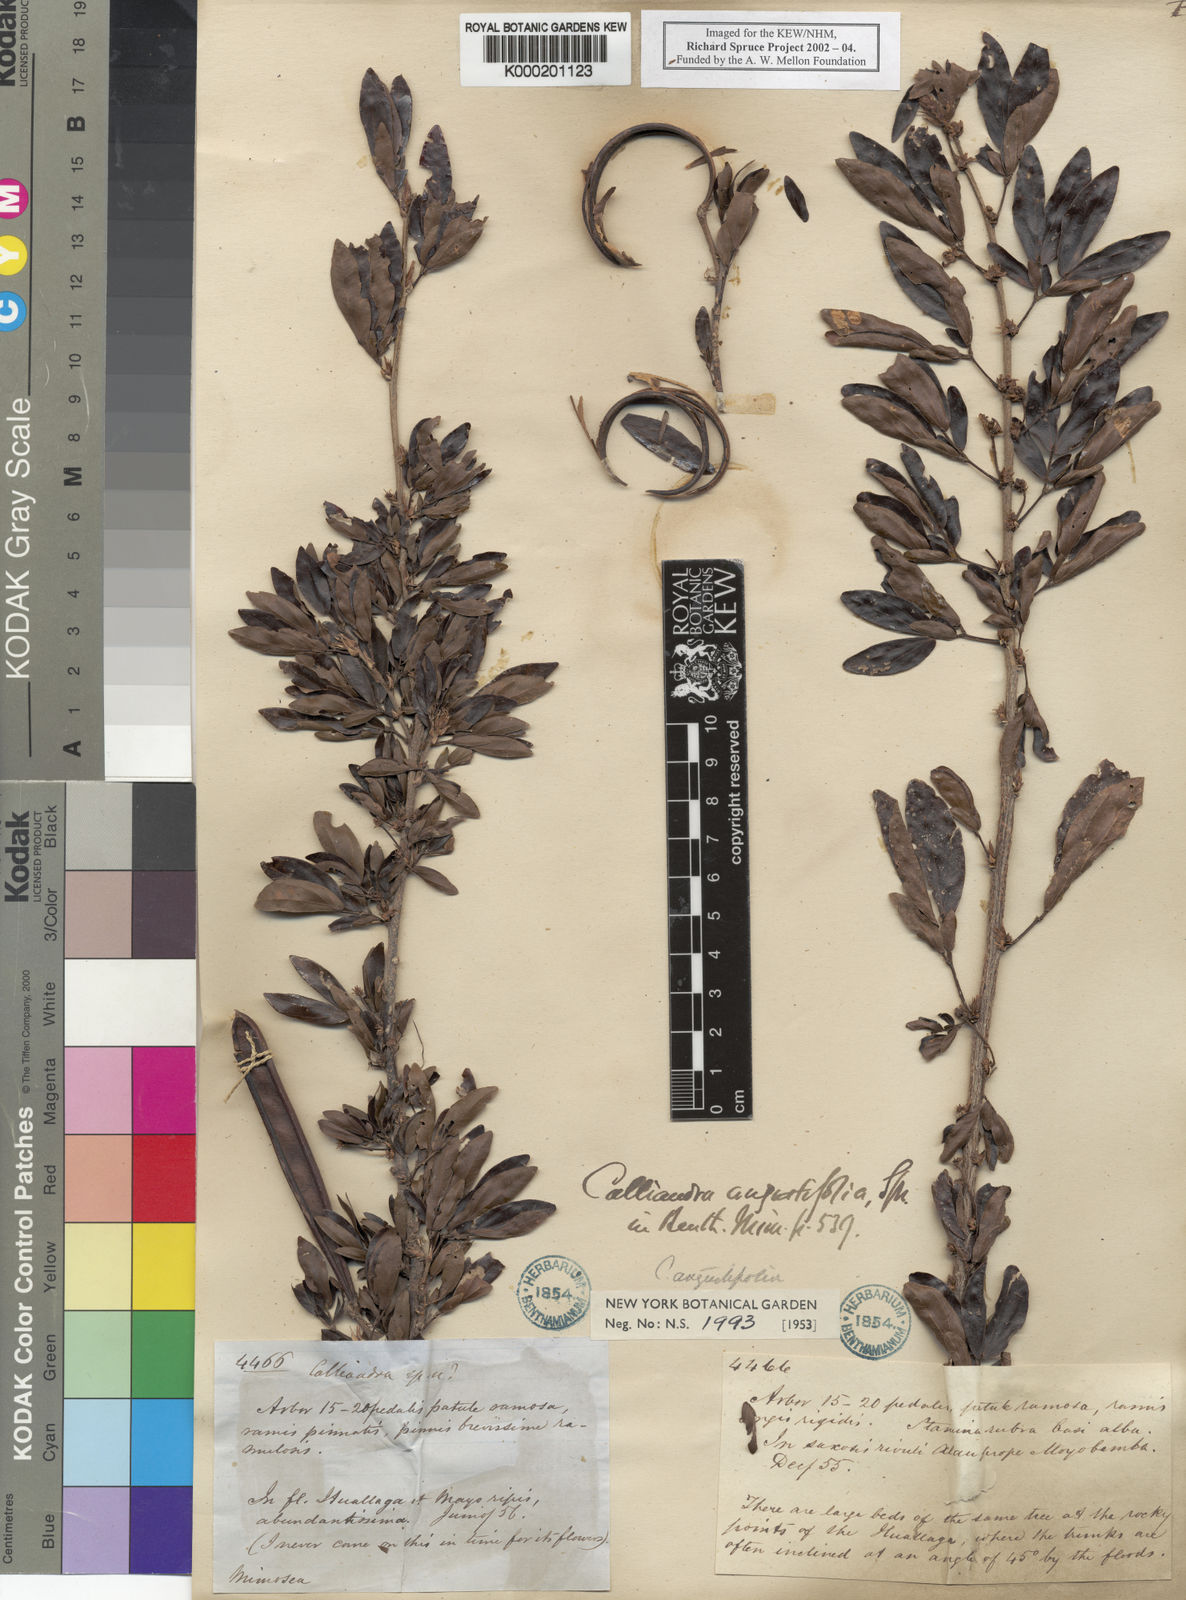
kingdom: Plantae
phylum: Tracheophyta
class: Magnoliopsida
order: Fabales
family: Fabaceae
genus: Calliandra
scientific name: Calliandra angustifolia
